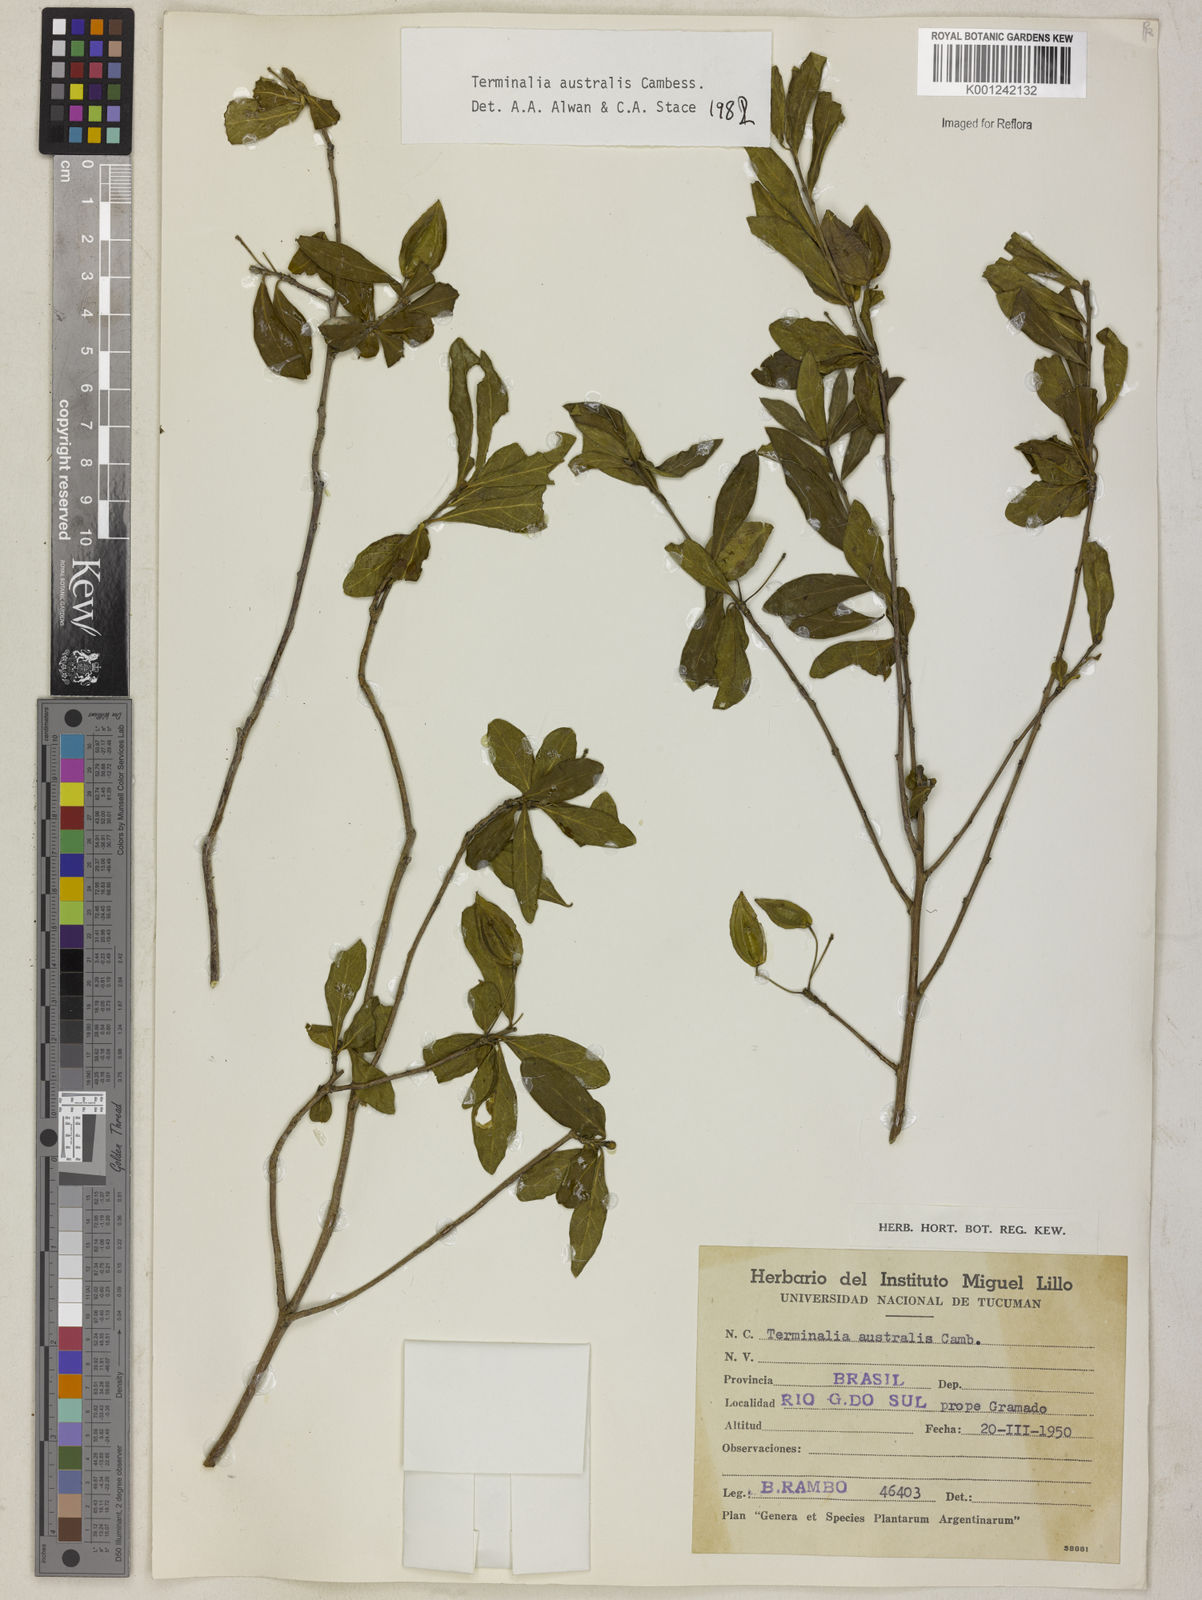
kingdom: Plantae
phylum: Tracheophyta
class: Magnoliopsida
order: Myrtales
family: Combretaceae
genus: Terminalia
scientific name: Terminalia australis
